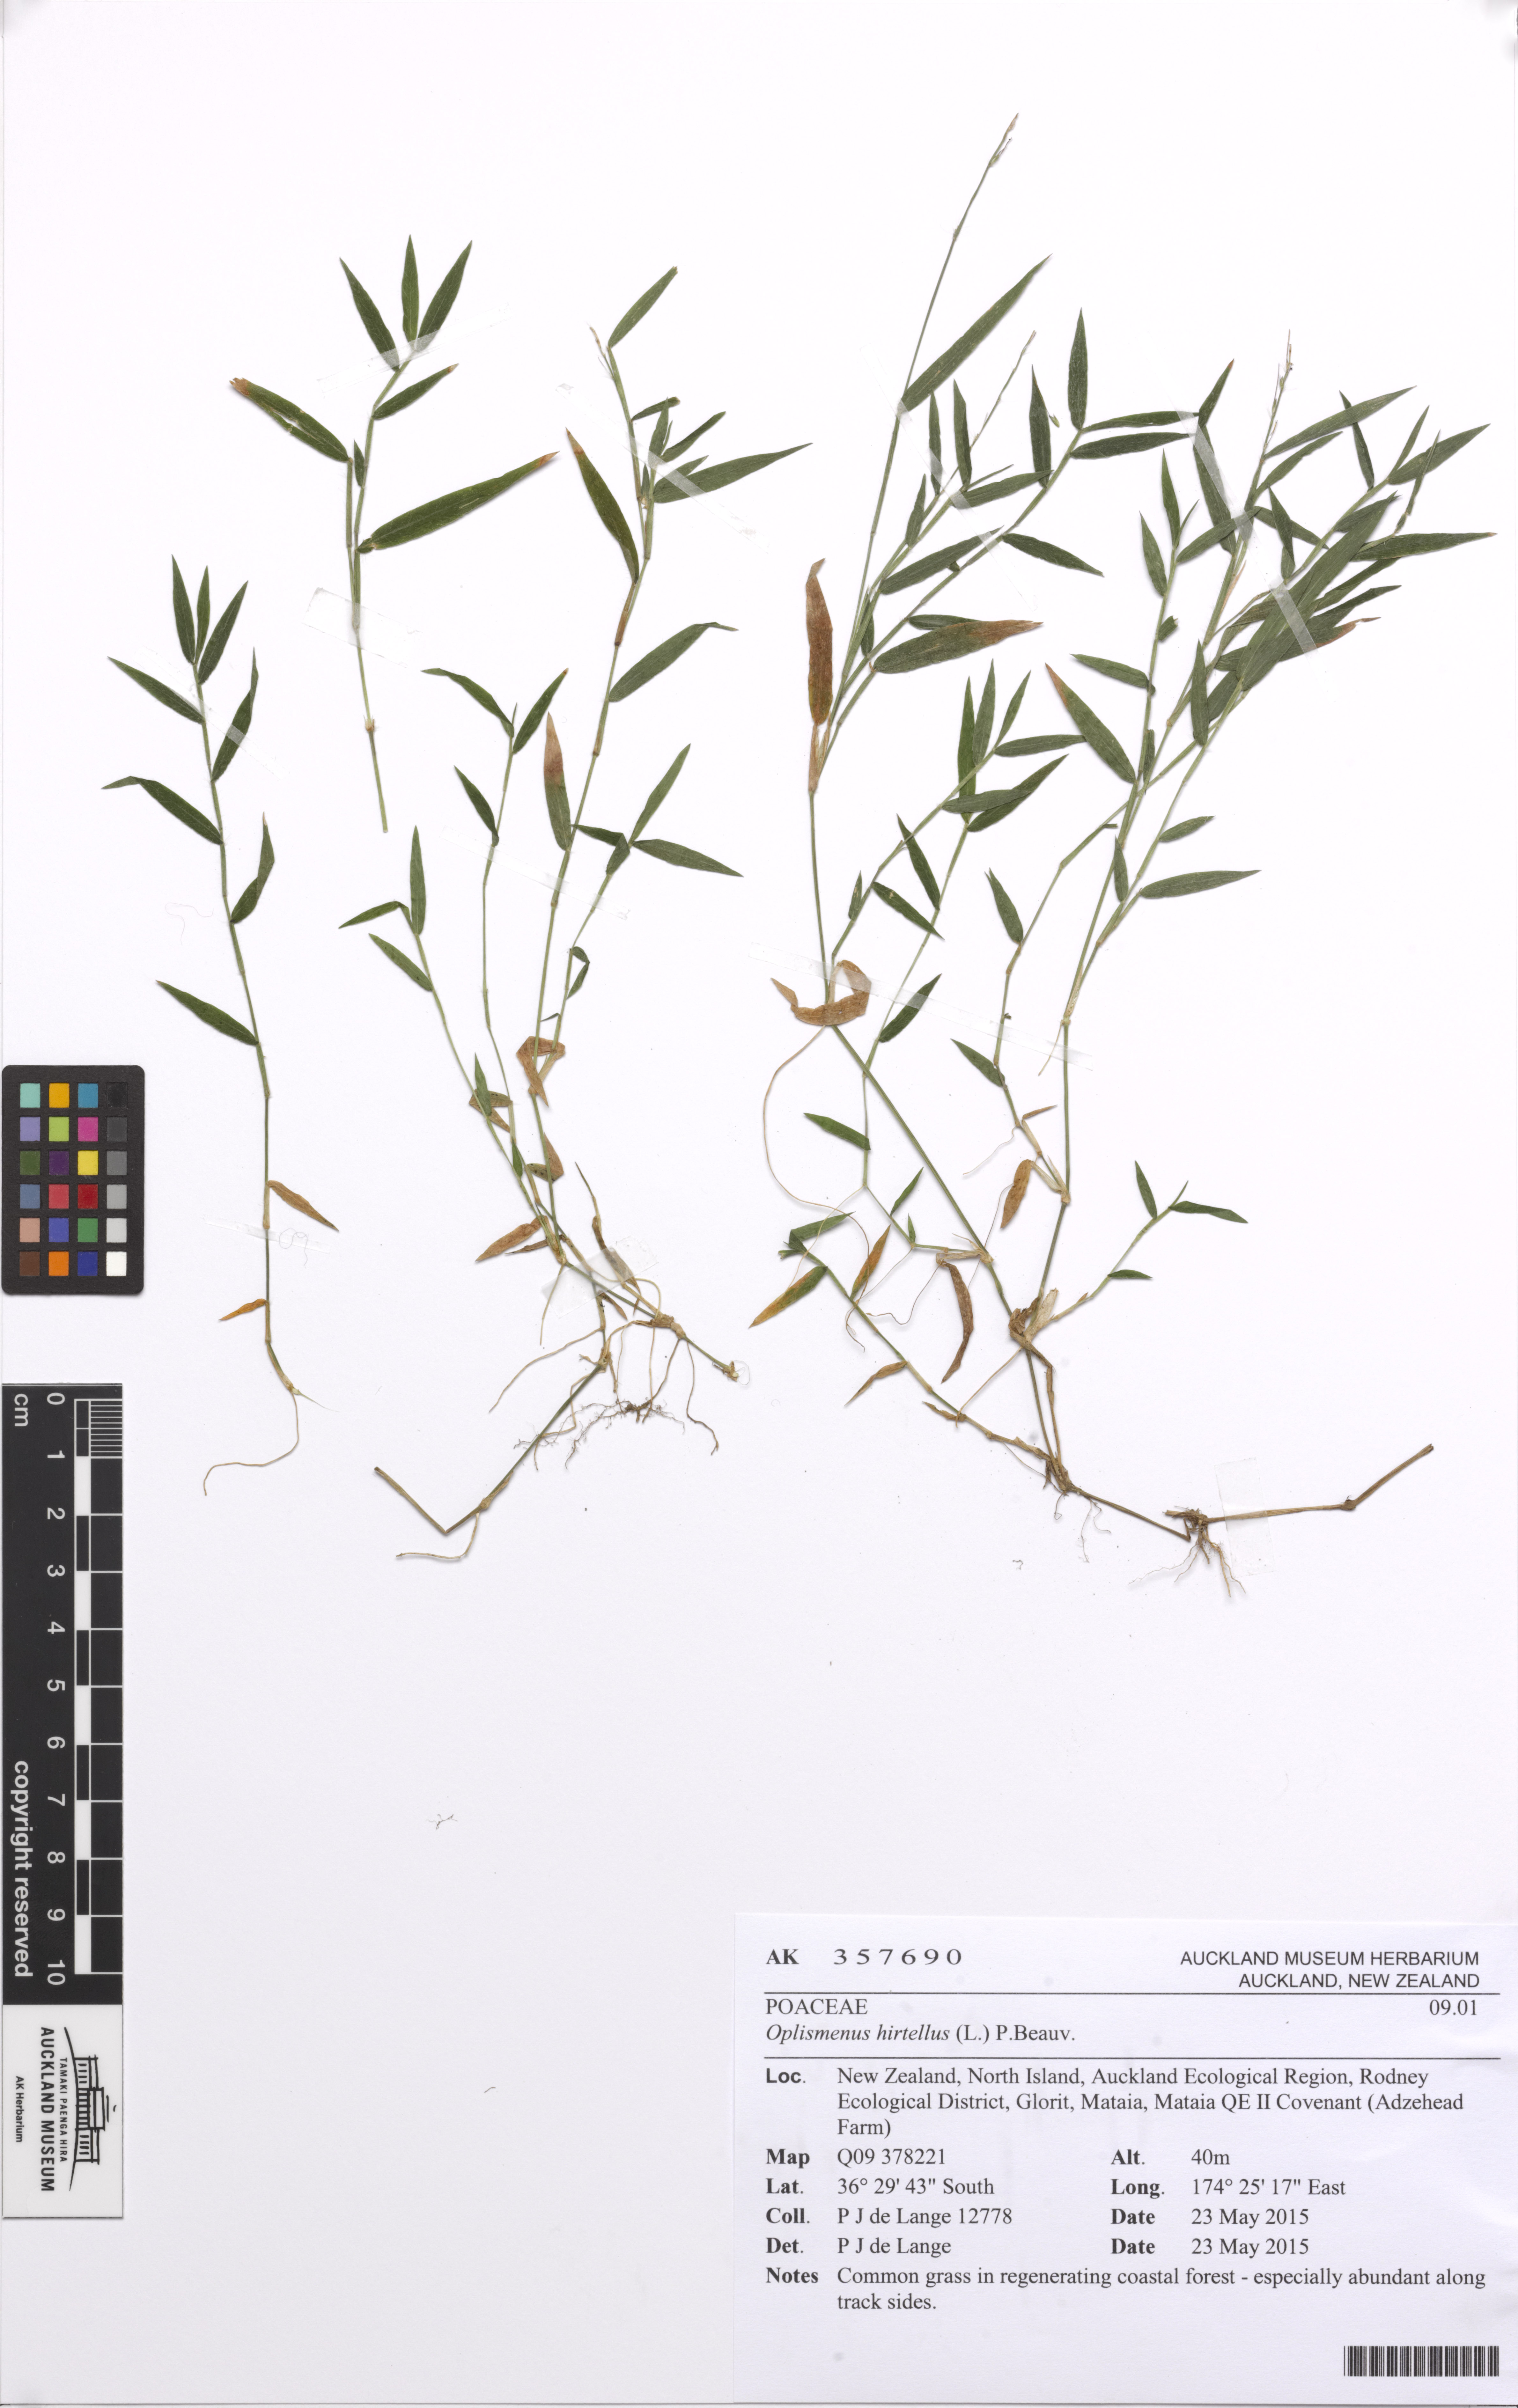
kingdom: Plantae
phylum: Tracheophyta
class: Liliopsida
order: Poales
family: Poaceae
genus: Oplismenus
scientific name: Oplismenus hirtellus
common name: Basketgrass
